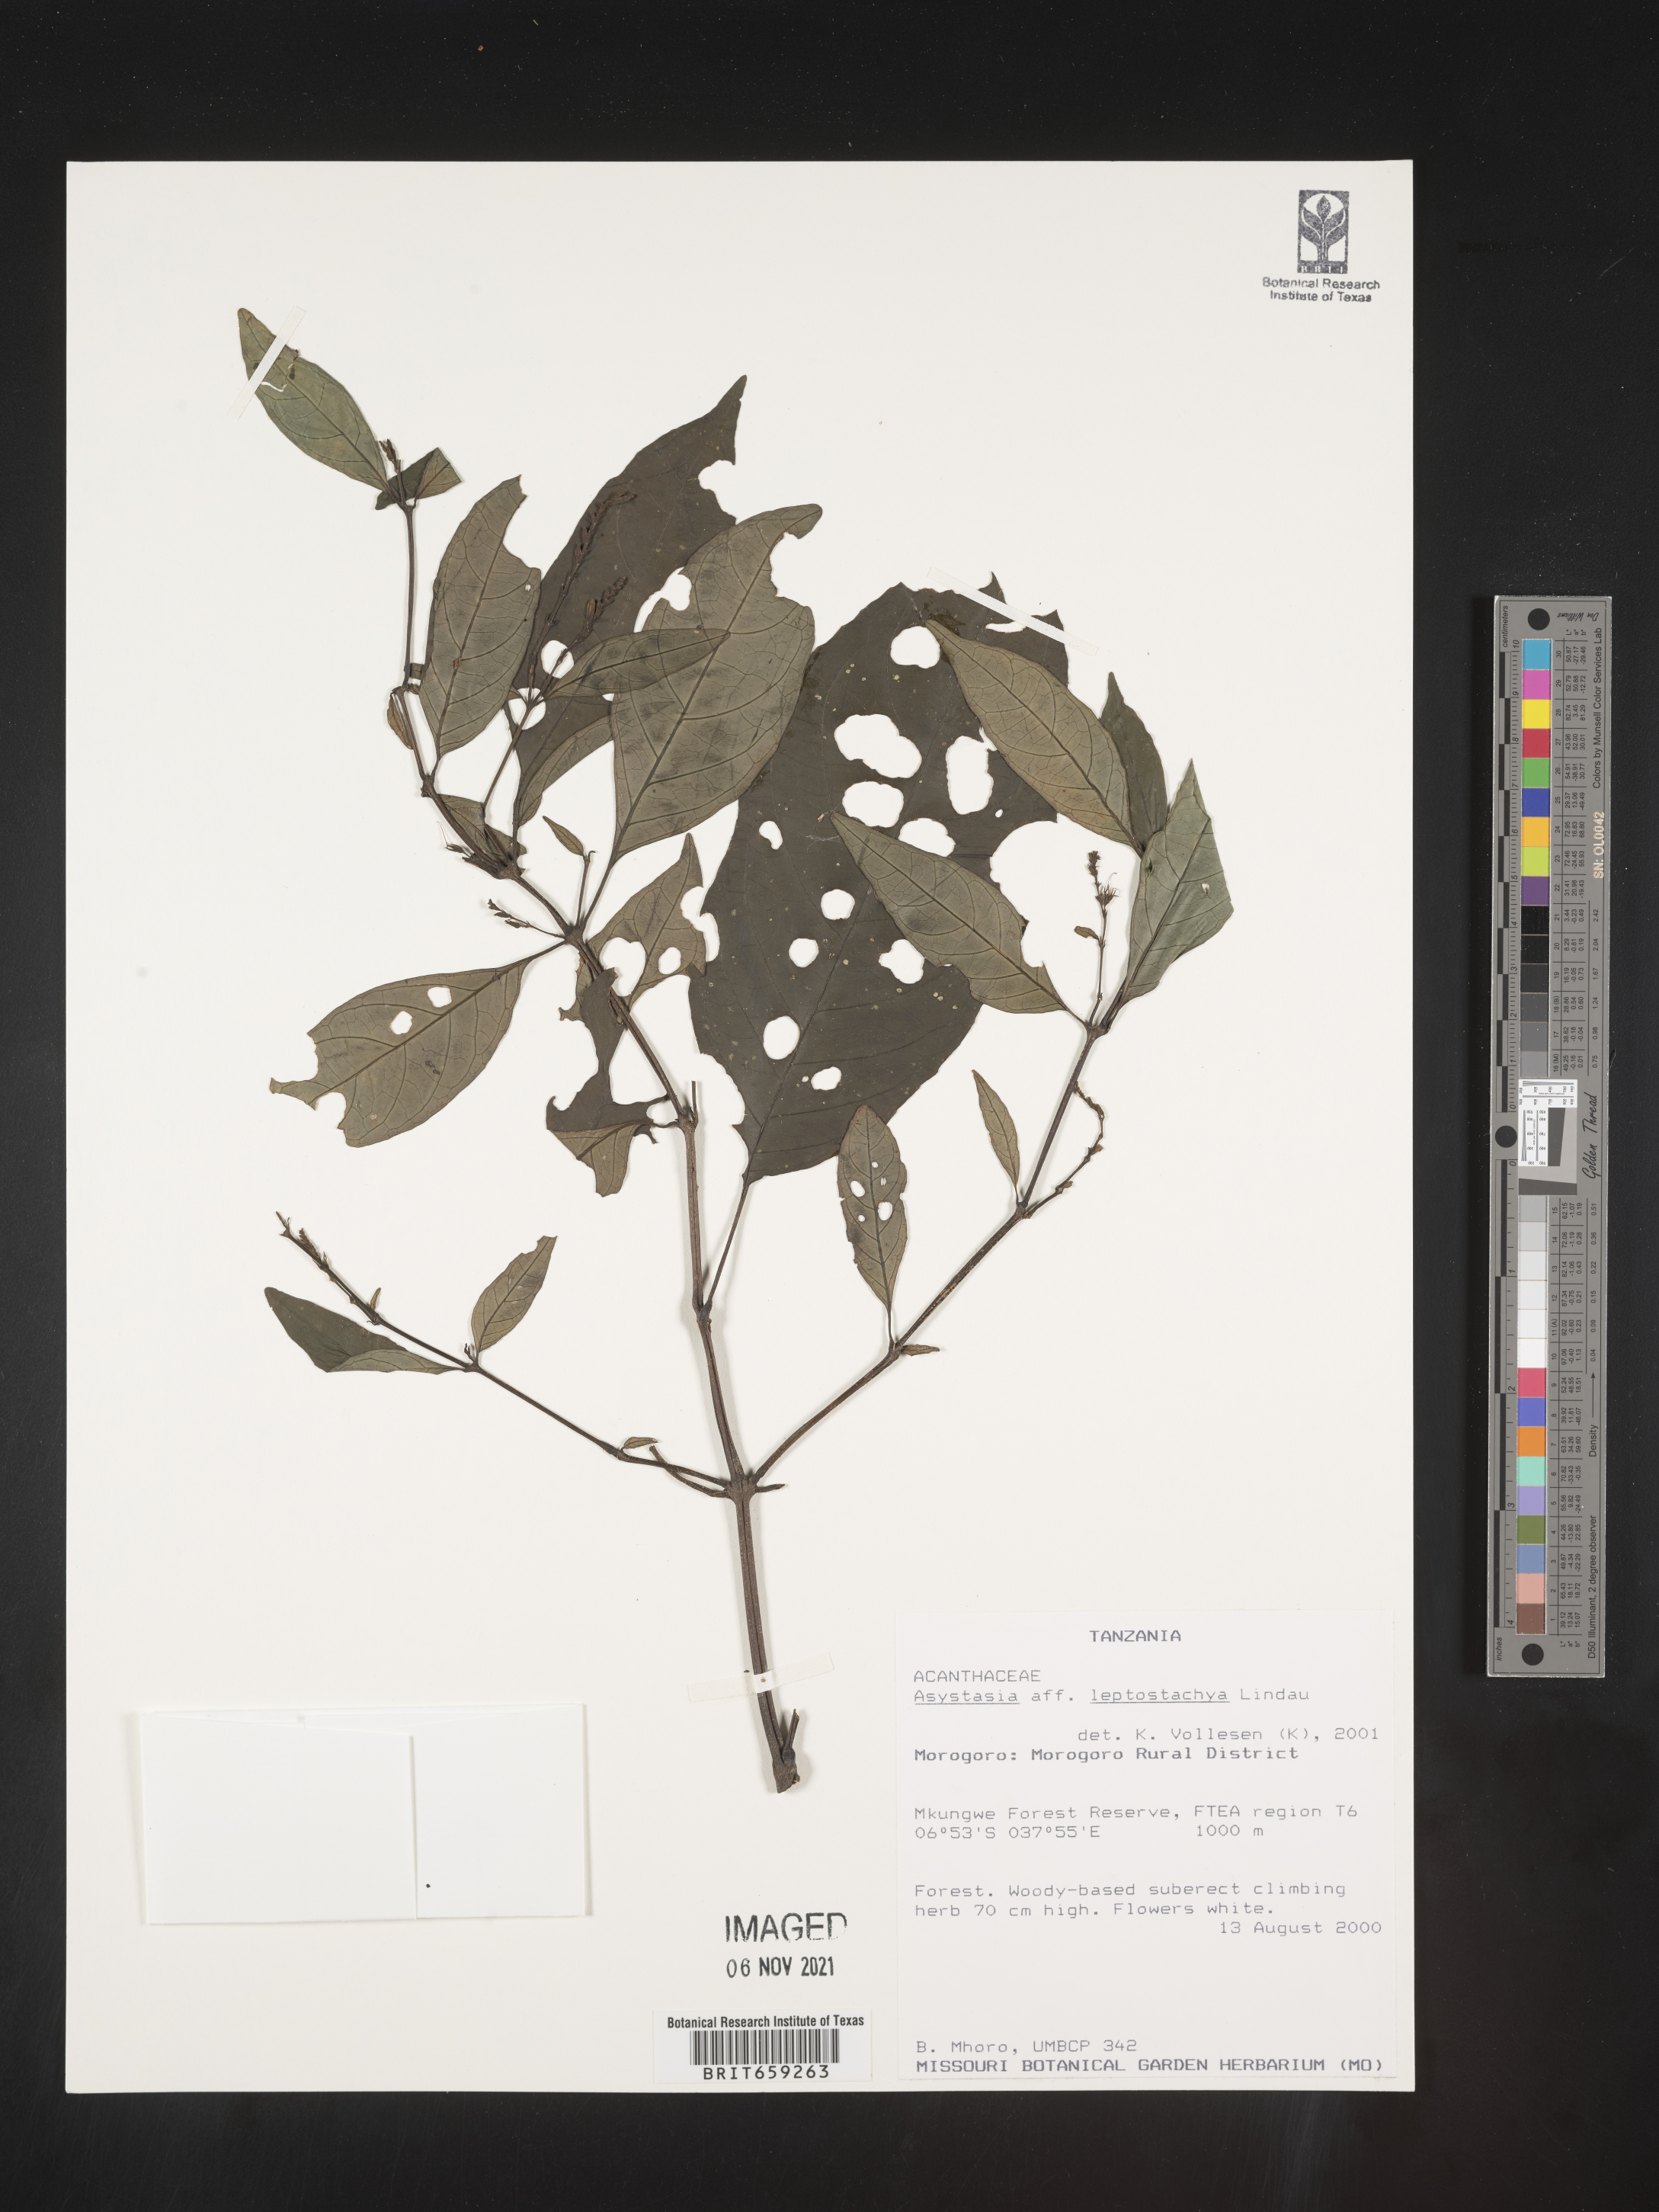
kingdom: Plantae
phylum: Tracheophyta
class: Magnoliopsida
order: Lamiales
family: Acanthaceae
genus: Asystasia
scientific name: Asystasia leptostachya
